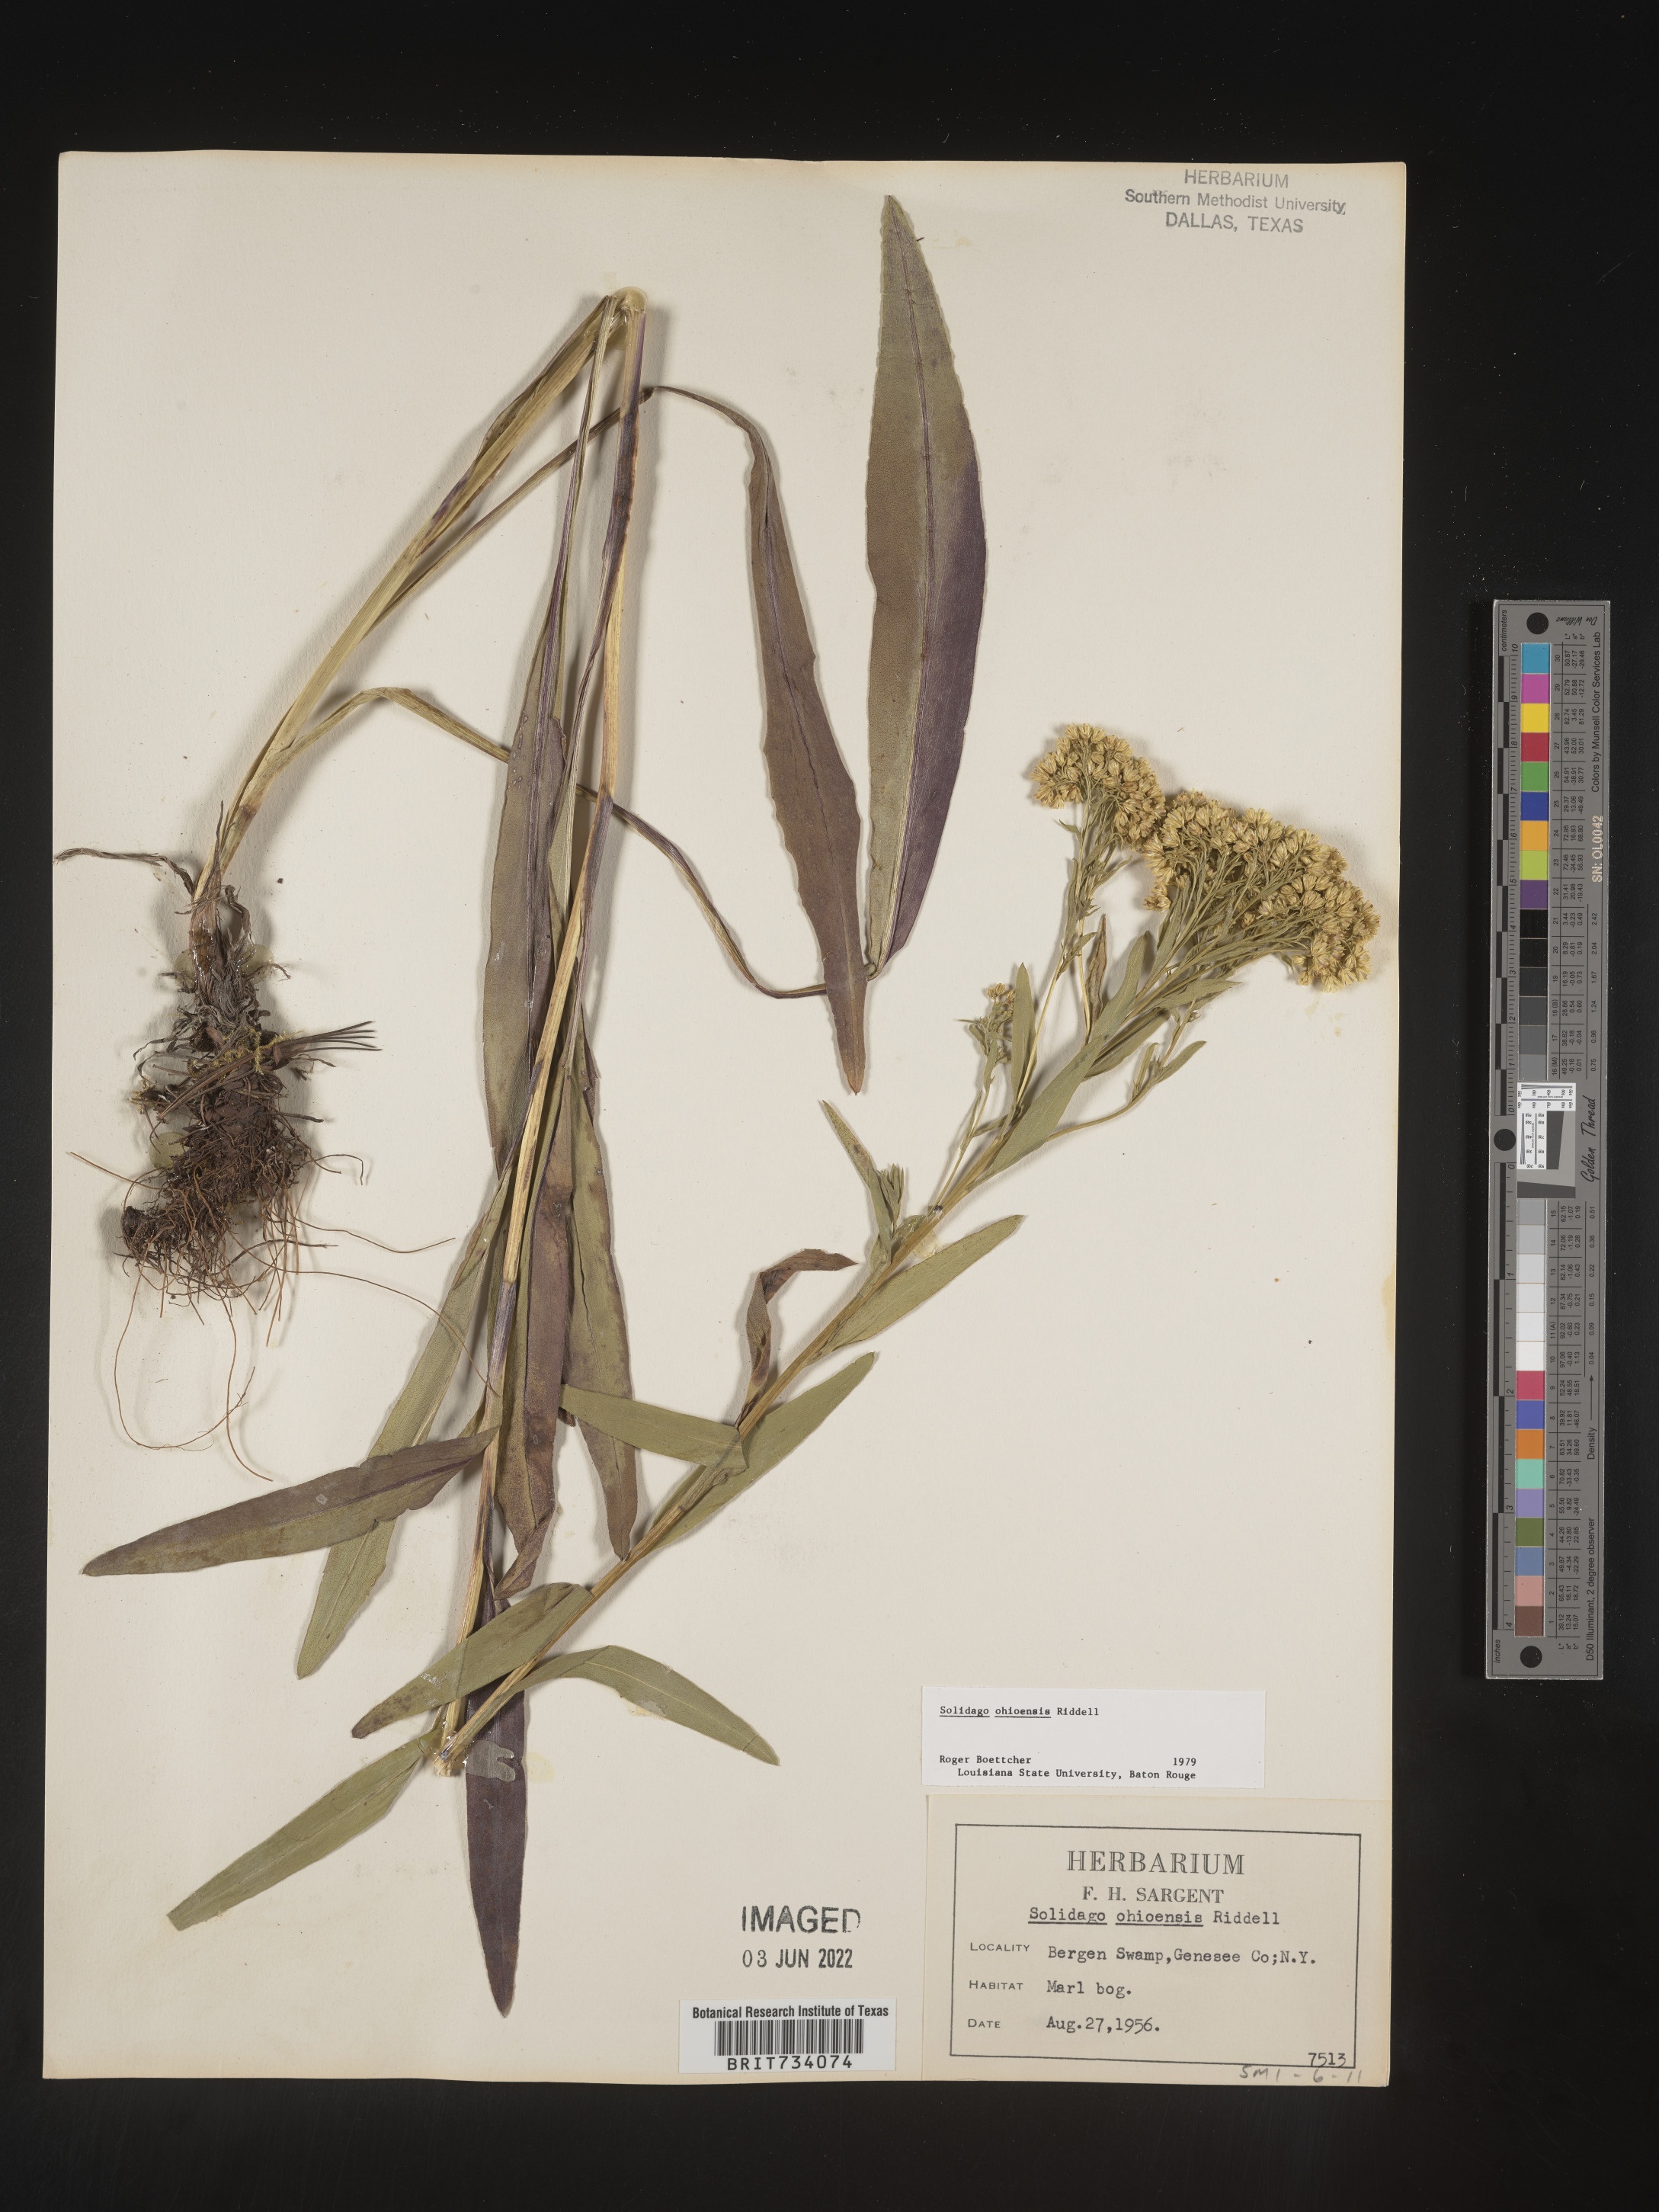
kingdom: Plantae
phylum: Tracheophyta
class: Magnoliopsida
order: Asterales
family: Asteraceae
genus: Solidago
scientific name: Solidago ohioensis
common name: Ohio goldenrod
